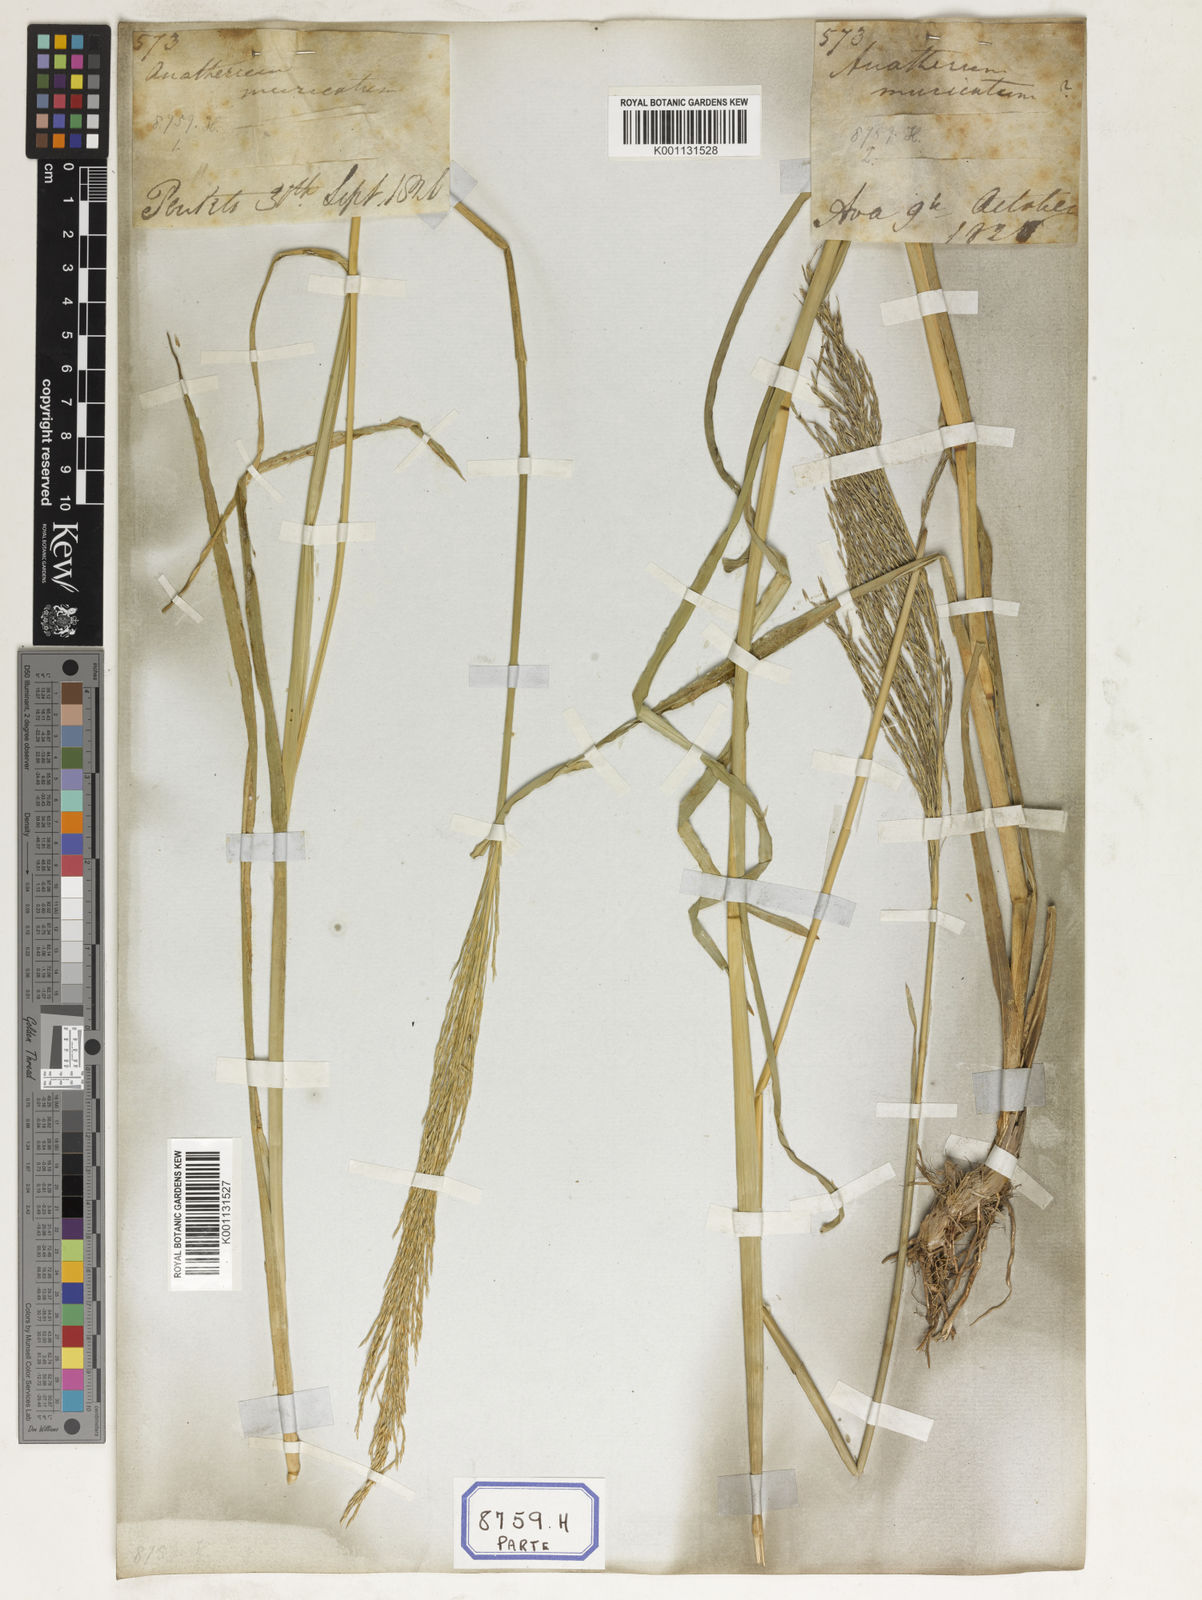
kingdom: Plantae
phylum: Tracheophyta
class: Liliopsida
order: Poales
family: Poaceae
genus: Chrysopogon
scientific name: Chrysopogon zizanioides
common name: False beardgrass
